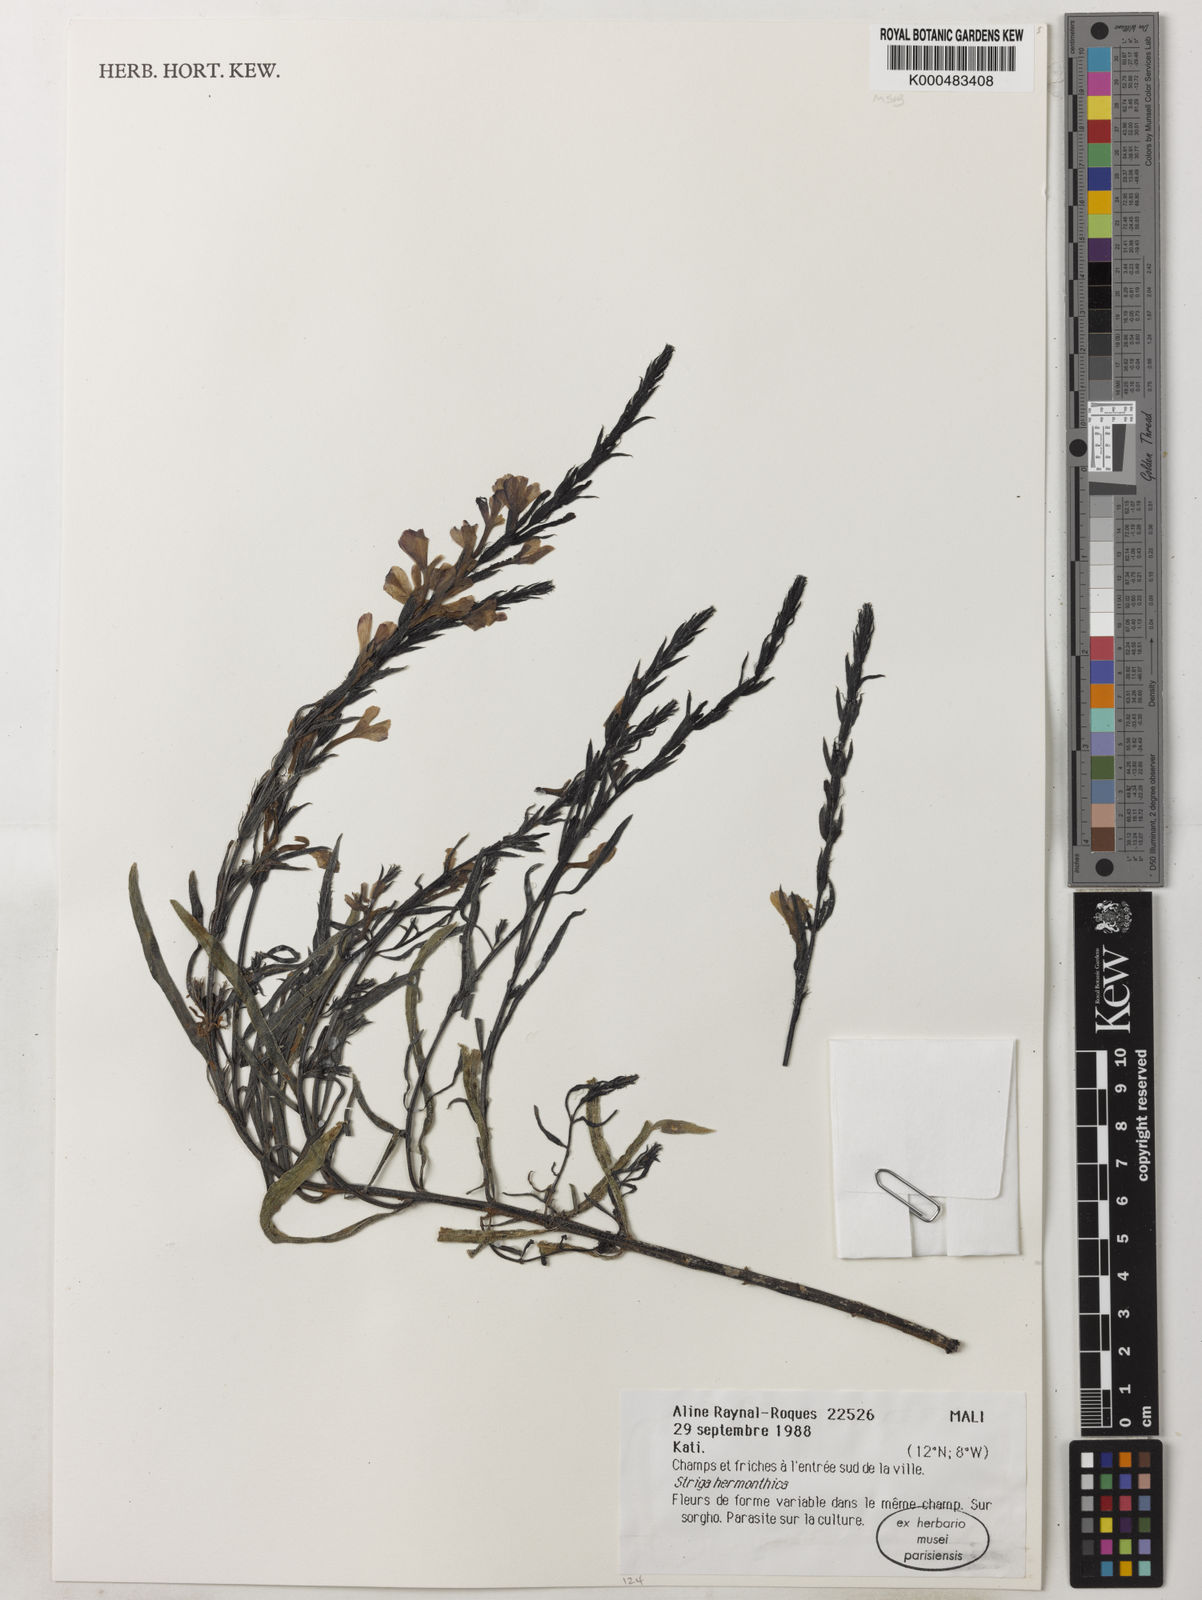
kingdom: Plantae
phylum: Tracheophyta
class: Magnoliopsida
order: Lamiales
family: Orobanchaceae
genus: Striga
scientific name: Striga hermonthica
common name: Purple witchweed
